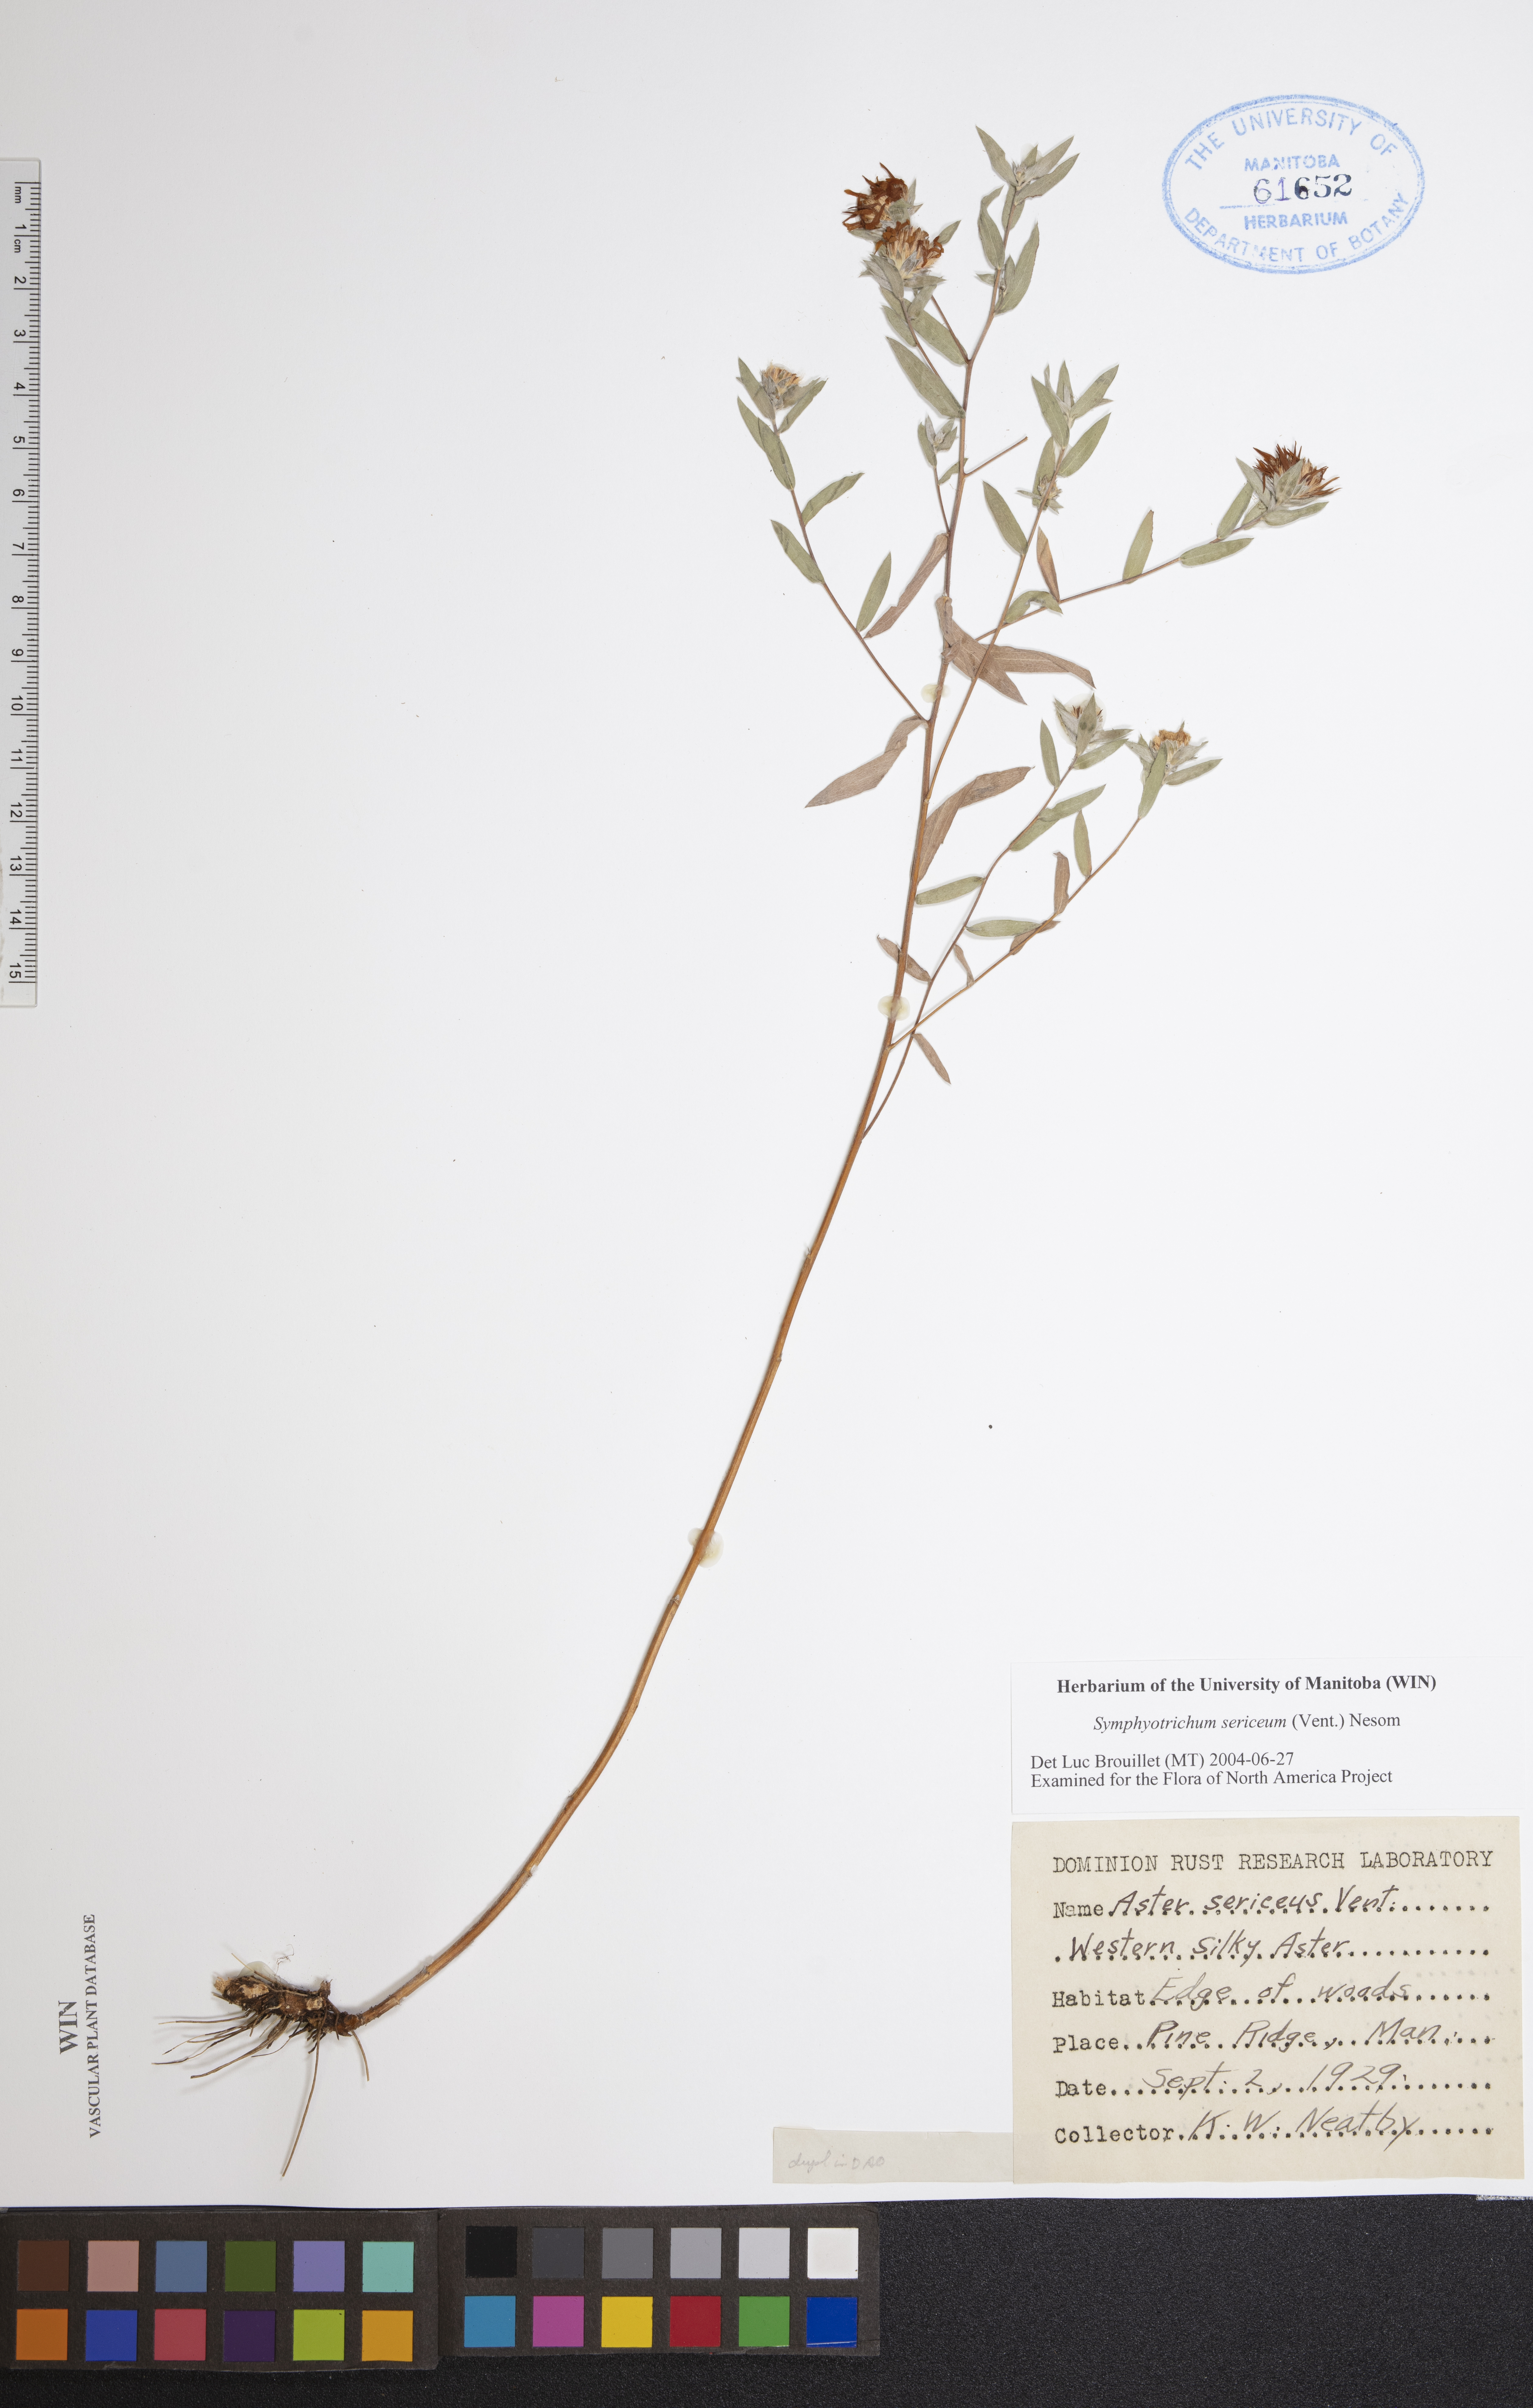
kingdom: Plantae
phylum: Tracheophyta
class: Magnoliopsida
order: Asterales
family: Asteraceae
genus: Symphyotrichum
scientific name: Symphyotrichum sericeum
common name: Silky aster
